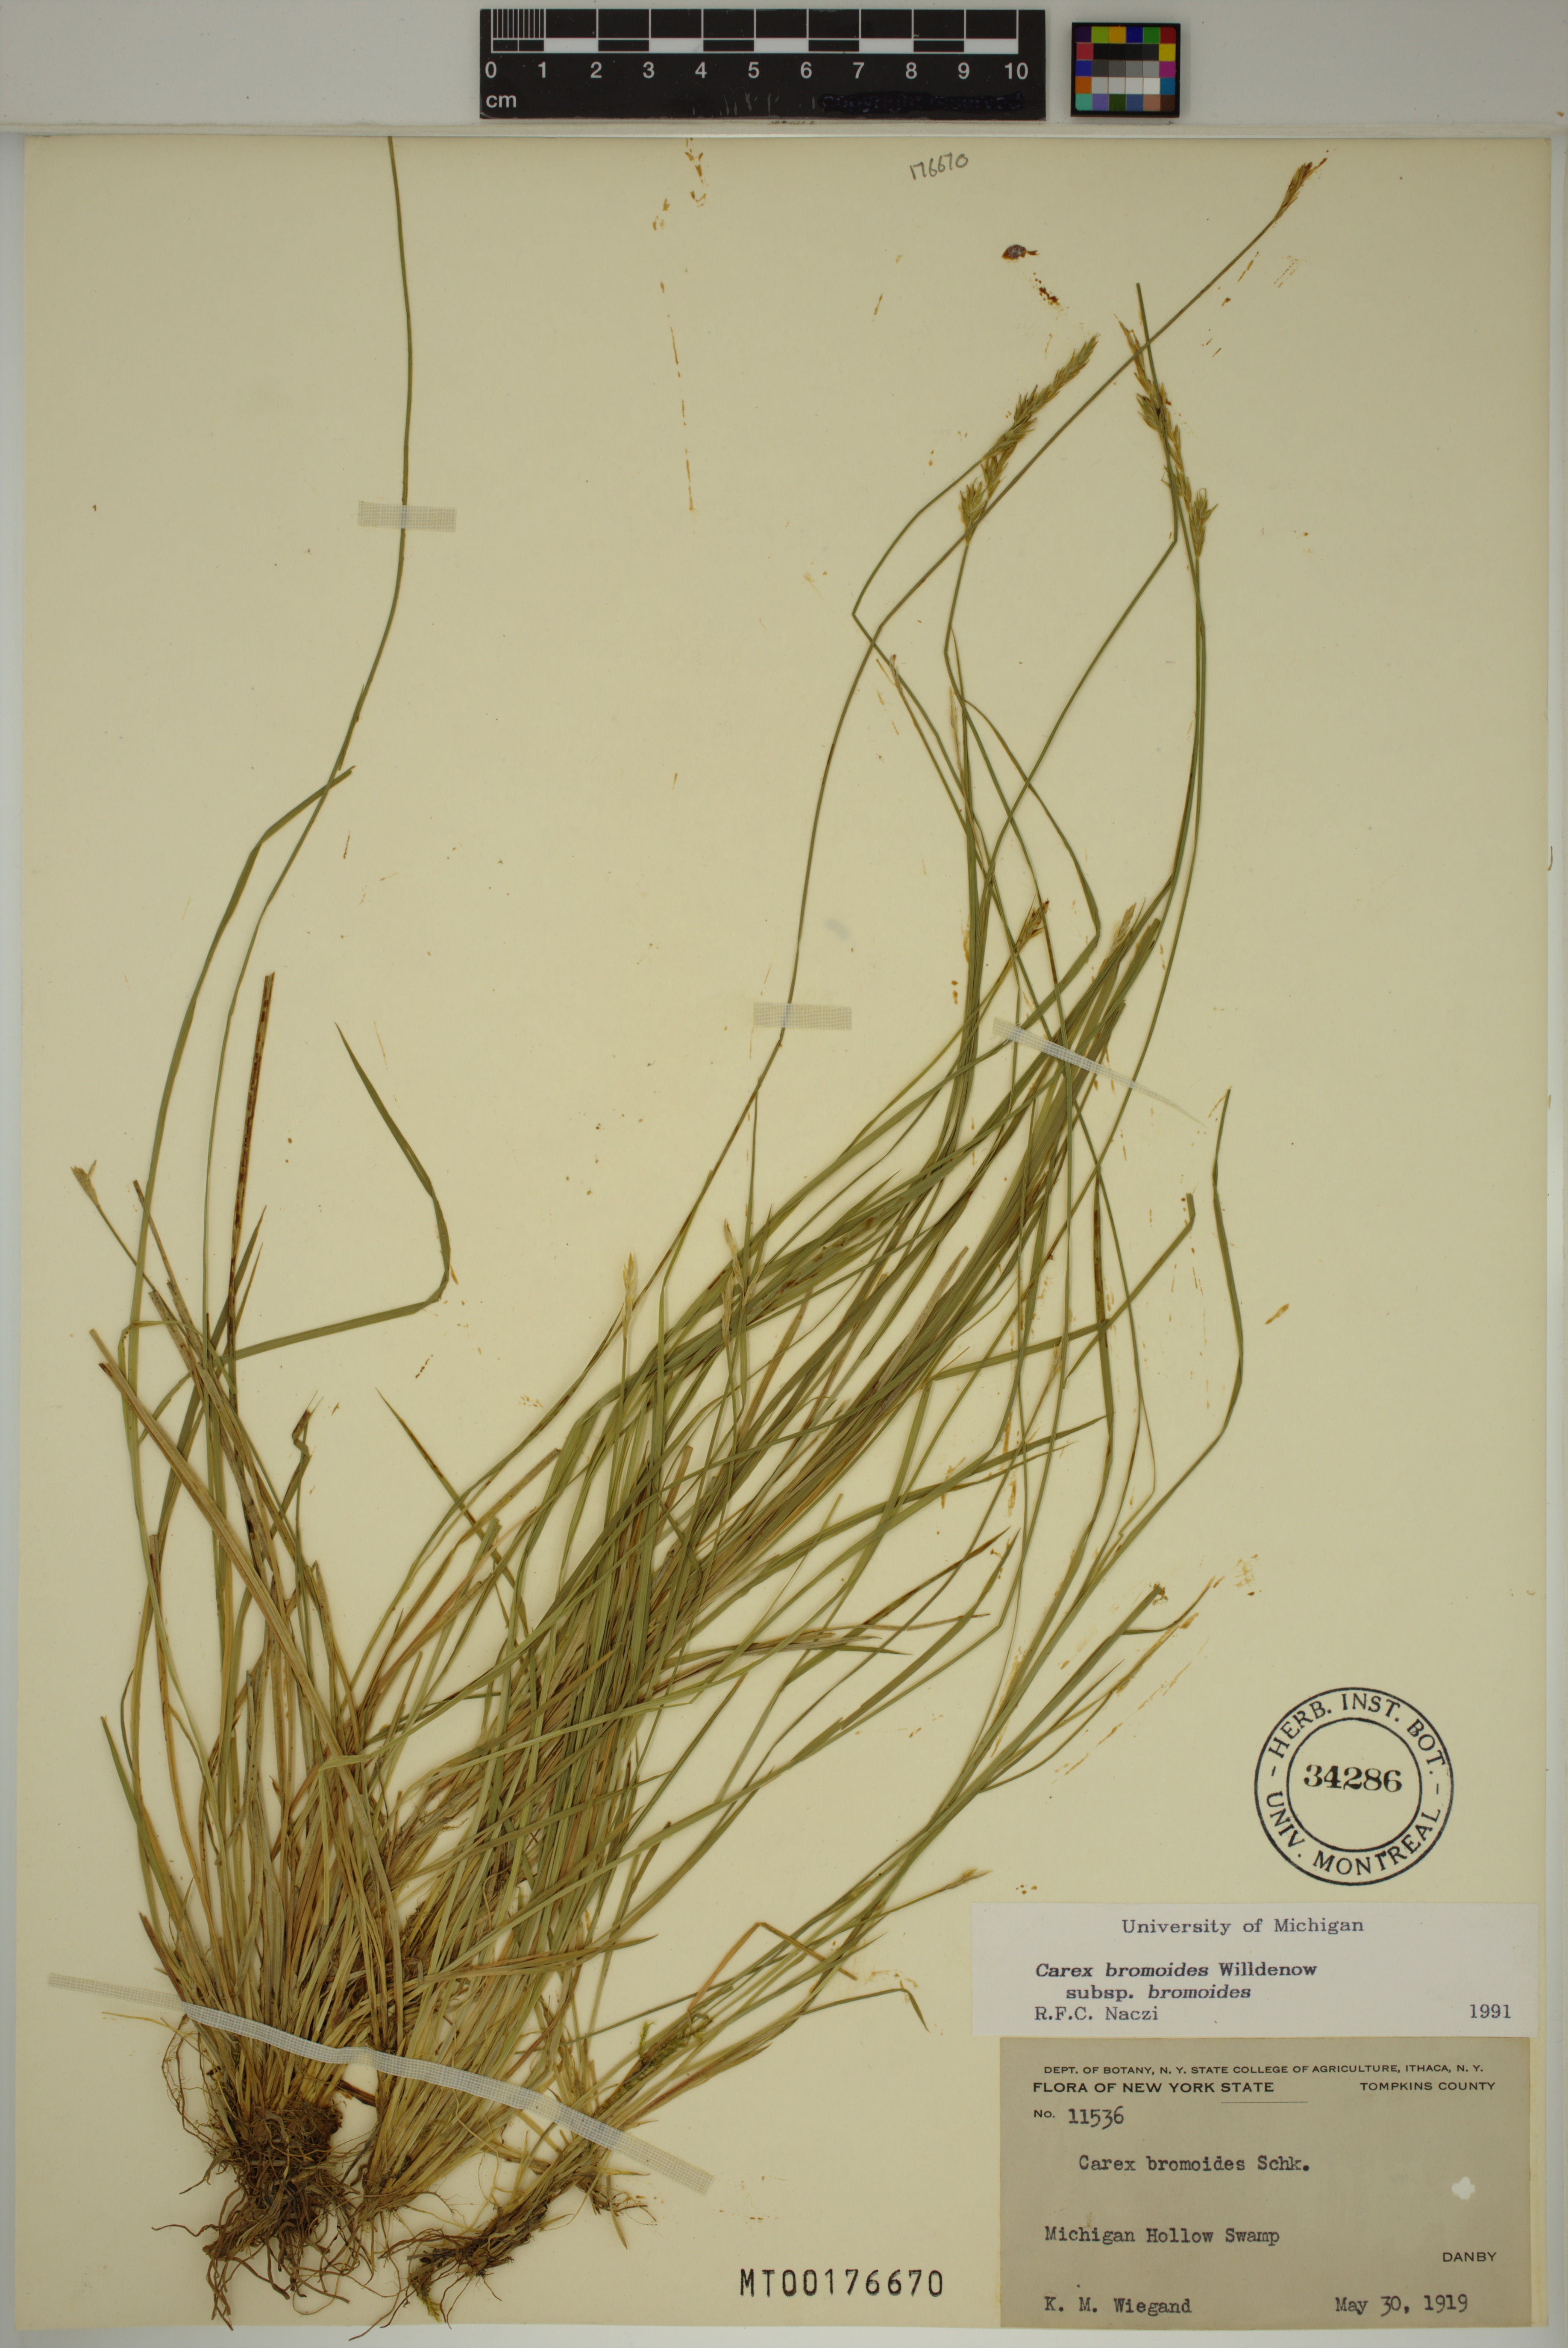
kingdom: Plantae
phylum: Tracheophyta
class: Liliopsida
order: Poales
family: Cyperaceae
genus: Carex
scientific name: Carex bromoides
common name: Brome hummock sedge
